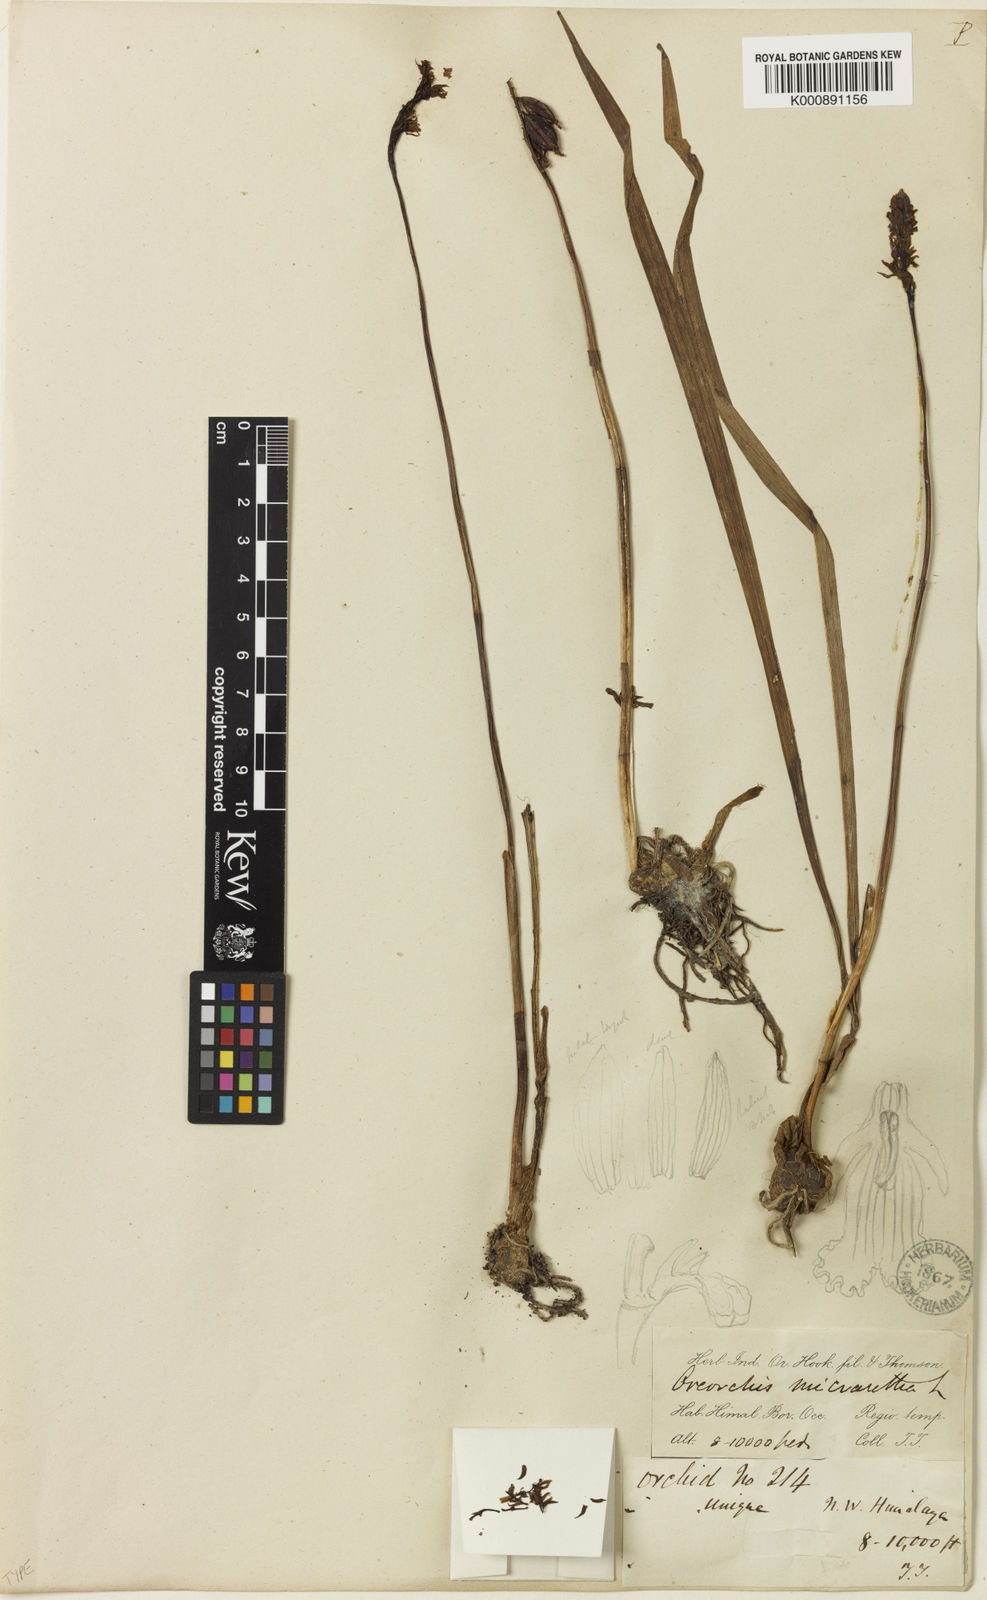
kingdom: Plantae
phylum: Tracheophyta
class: Liliopsida
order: Asparagales
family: Orchidaceae
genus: Oreorchis
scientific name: Oreorchis micrantha
